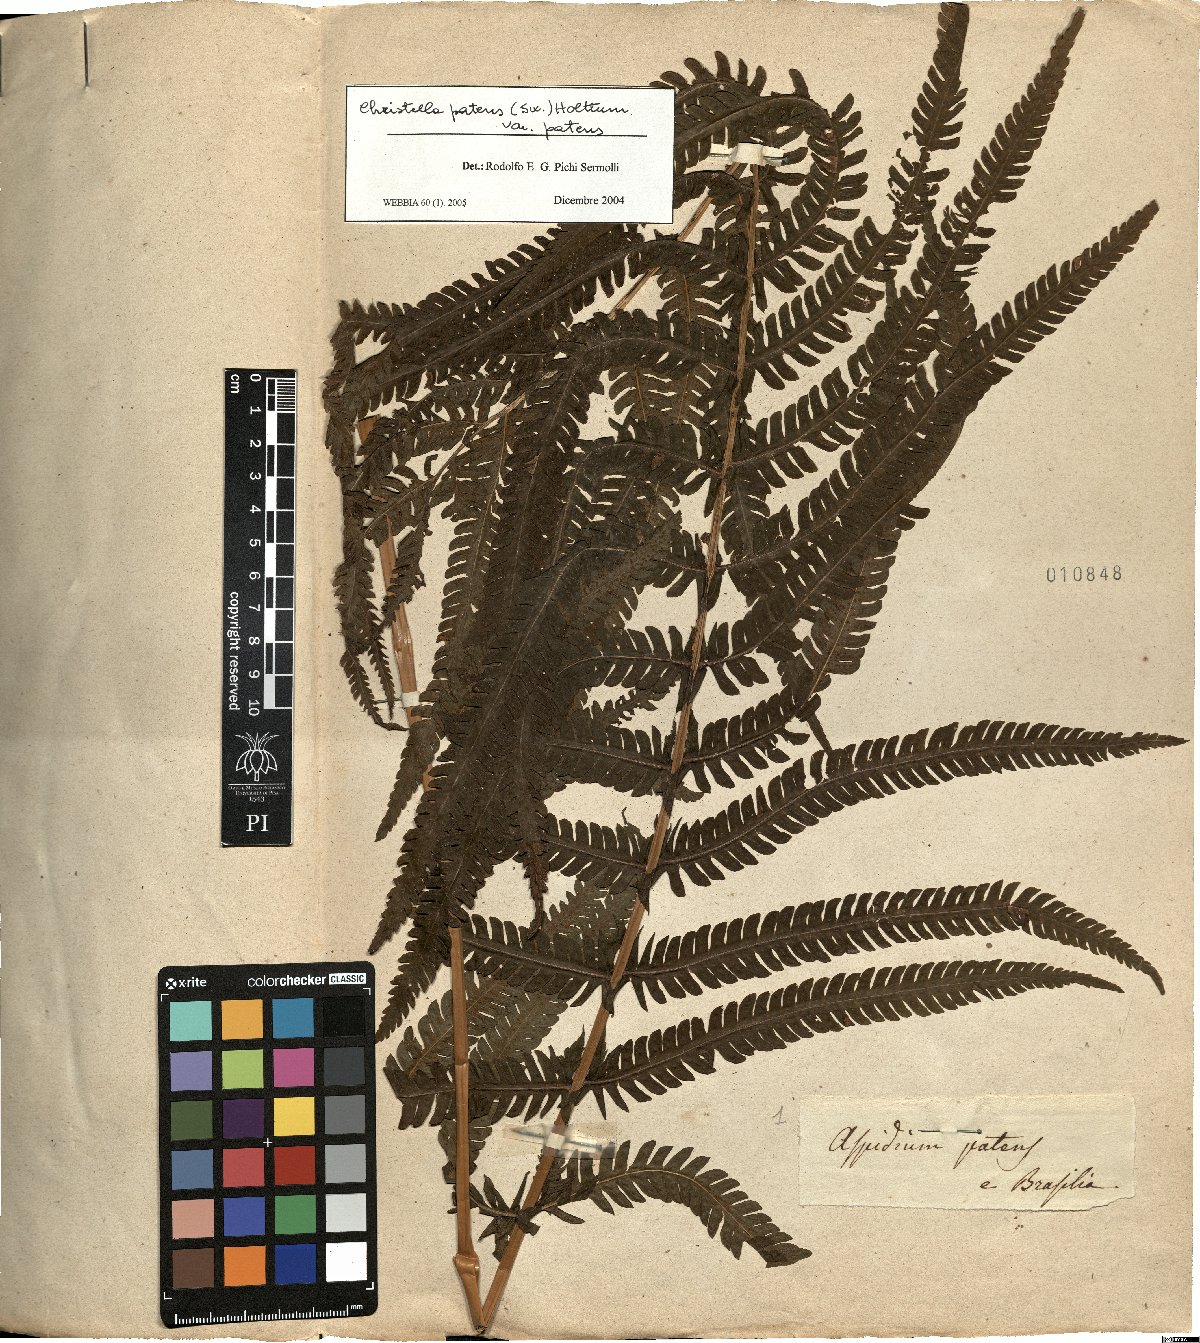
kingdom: Plantae
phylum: Tracheophyta
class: Polypodiopsida
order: Polypodiales
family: Thelypteridaceae
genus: Pelazoneuron
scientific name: Pelazoneuron patens
